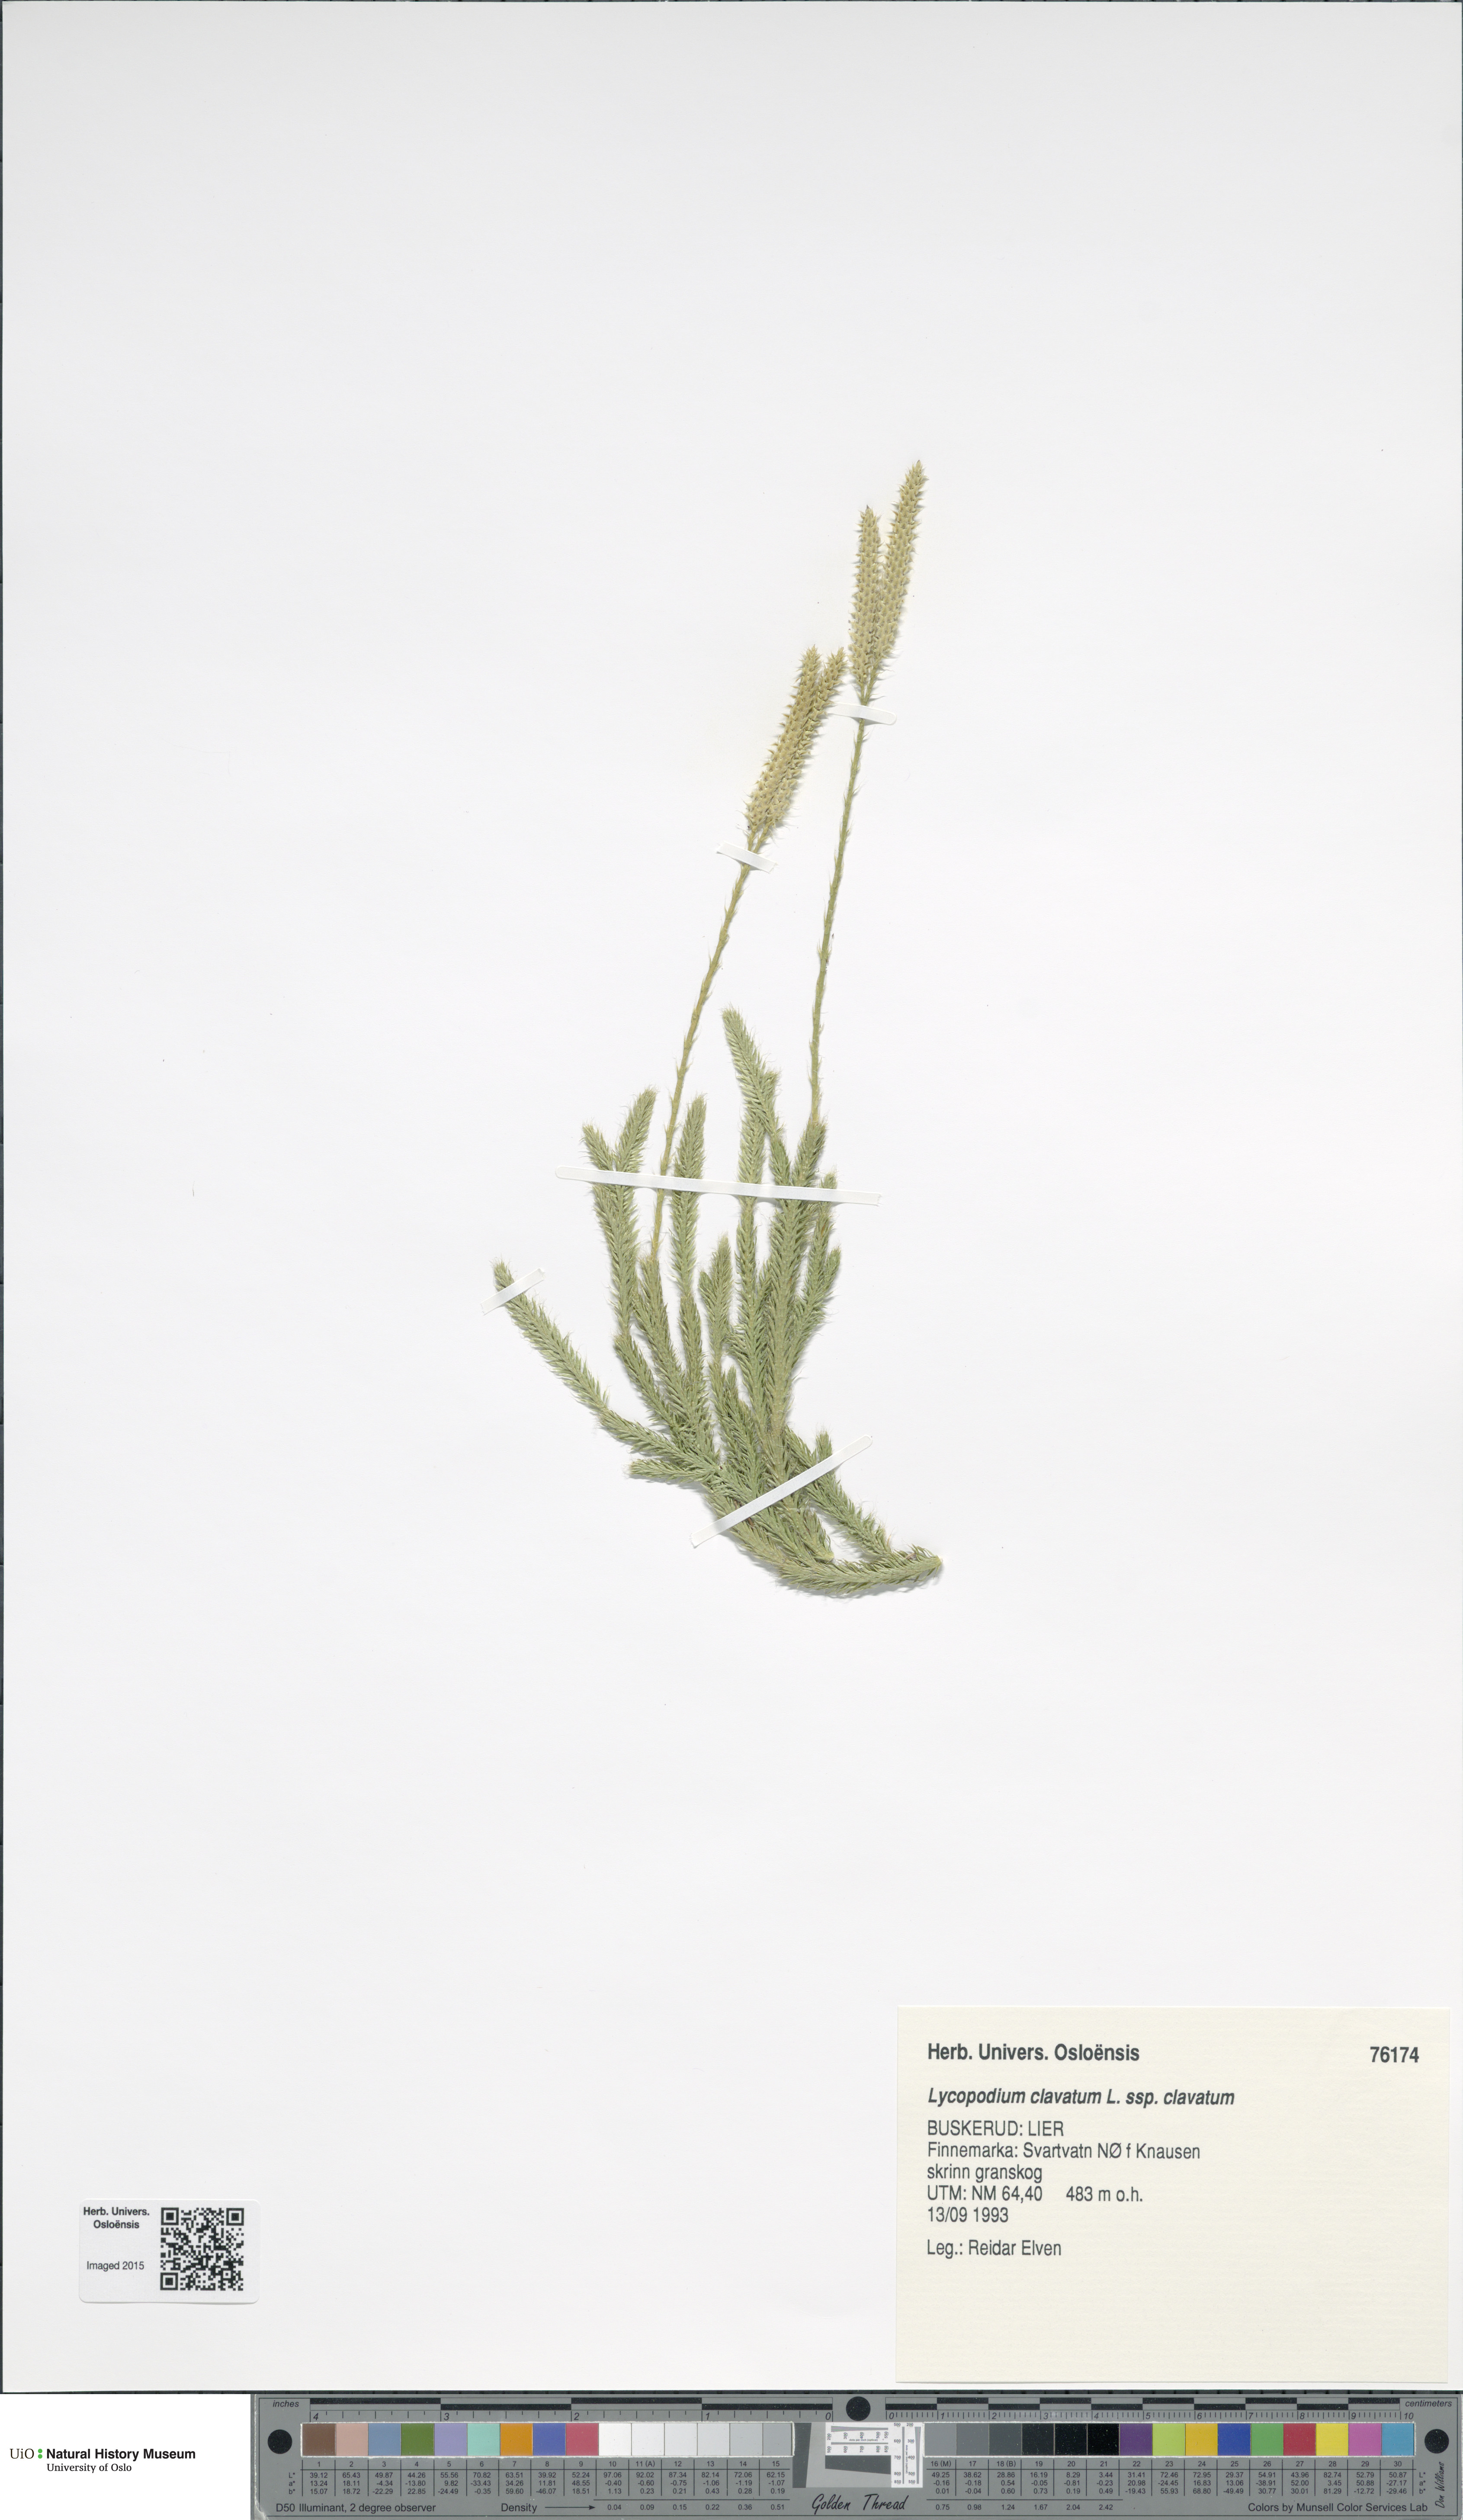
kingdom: Plantae
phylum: Tracheophyta
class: Lycopodiopsida
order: Lycopodiales
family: Lycopodiaceae
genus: Lycopodium
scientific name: Lycopodium clavatum
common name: Stag's-horn clubmoss
